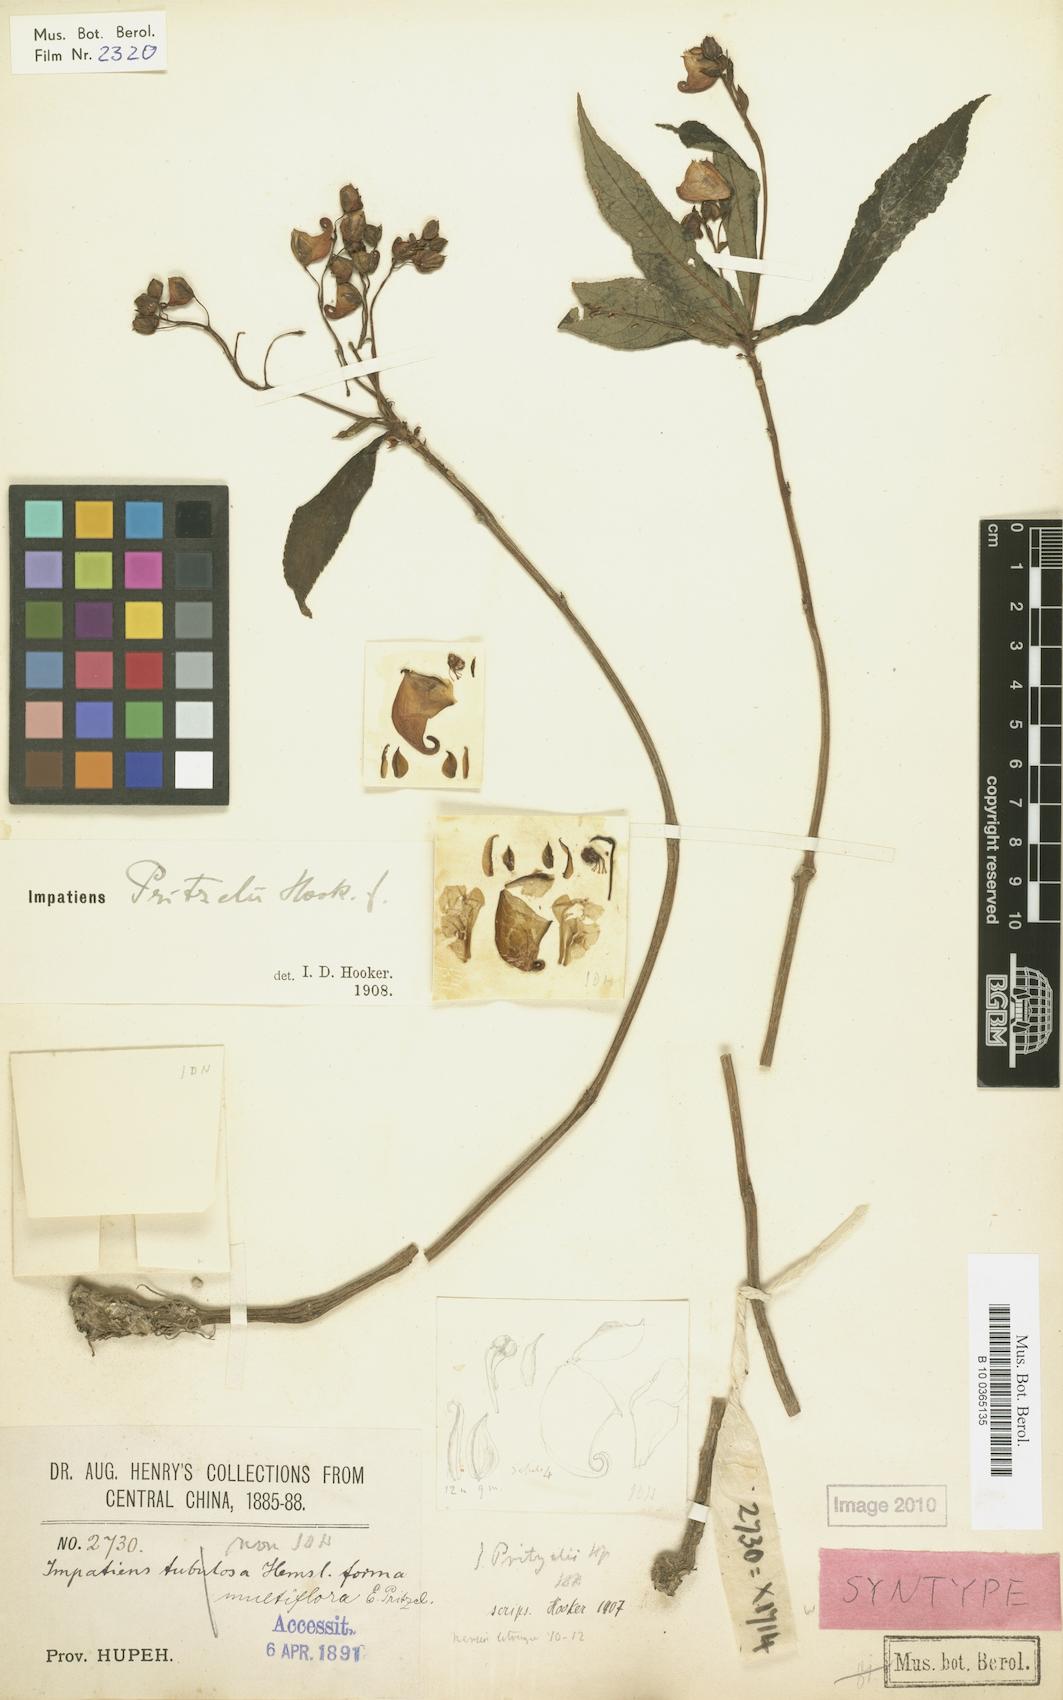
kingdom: Plantae
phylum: Tracheophyta
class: Magnoliopsida
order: Ericales
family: Balsaminaceae
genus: Impatiens
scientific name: Impatiens pritzelii
